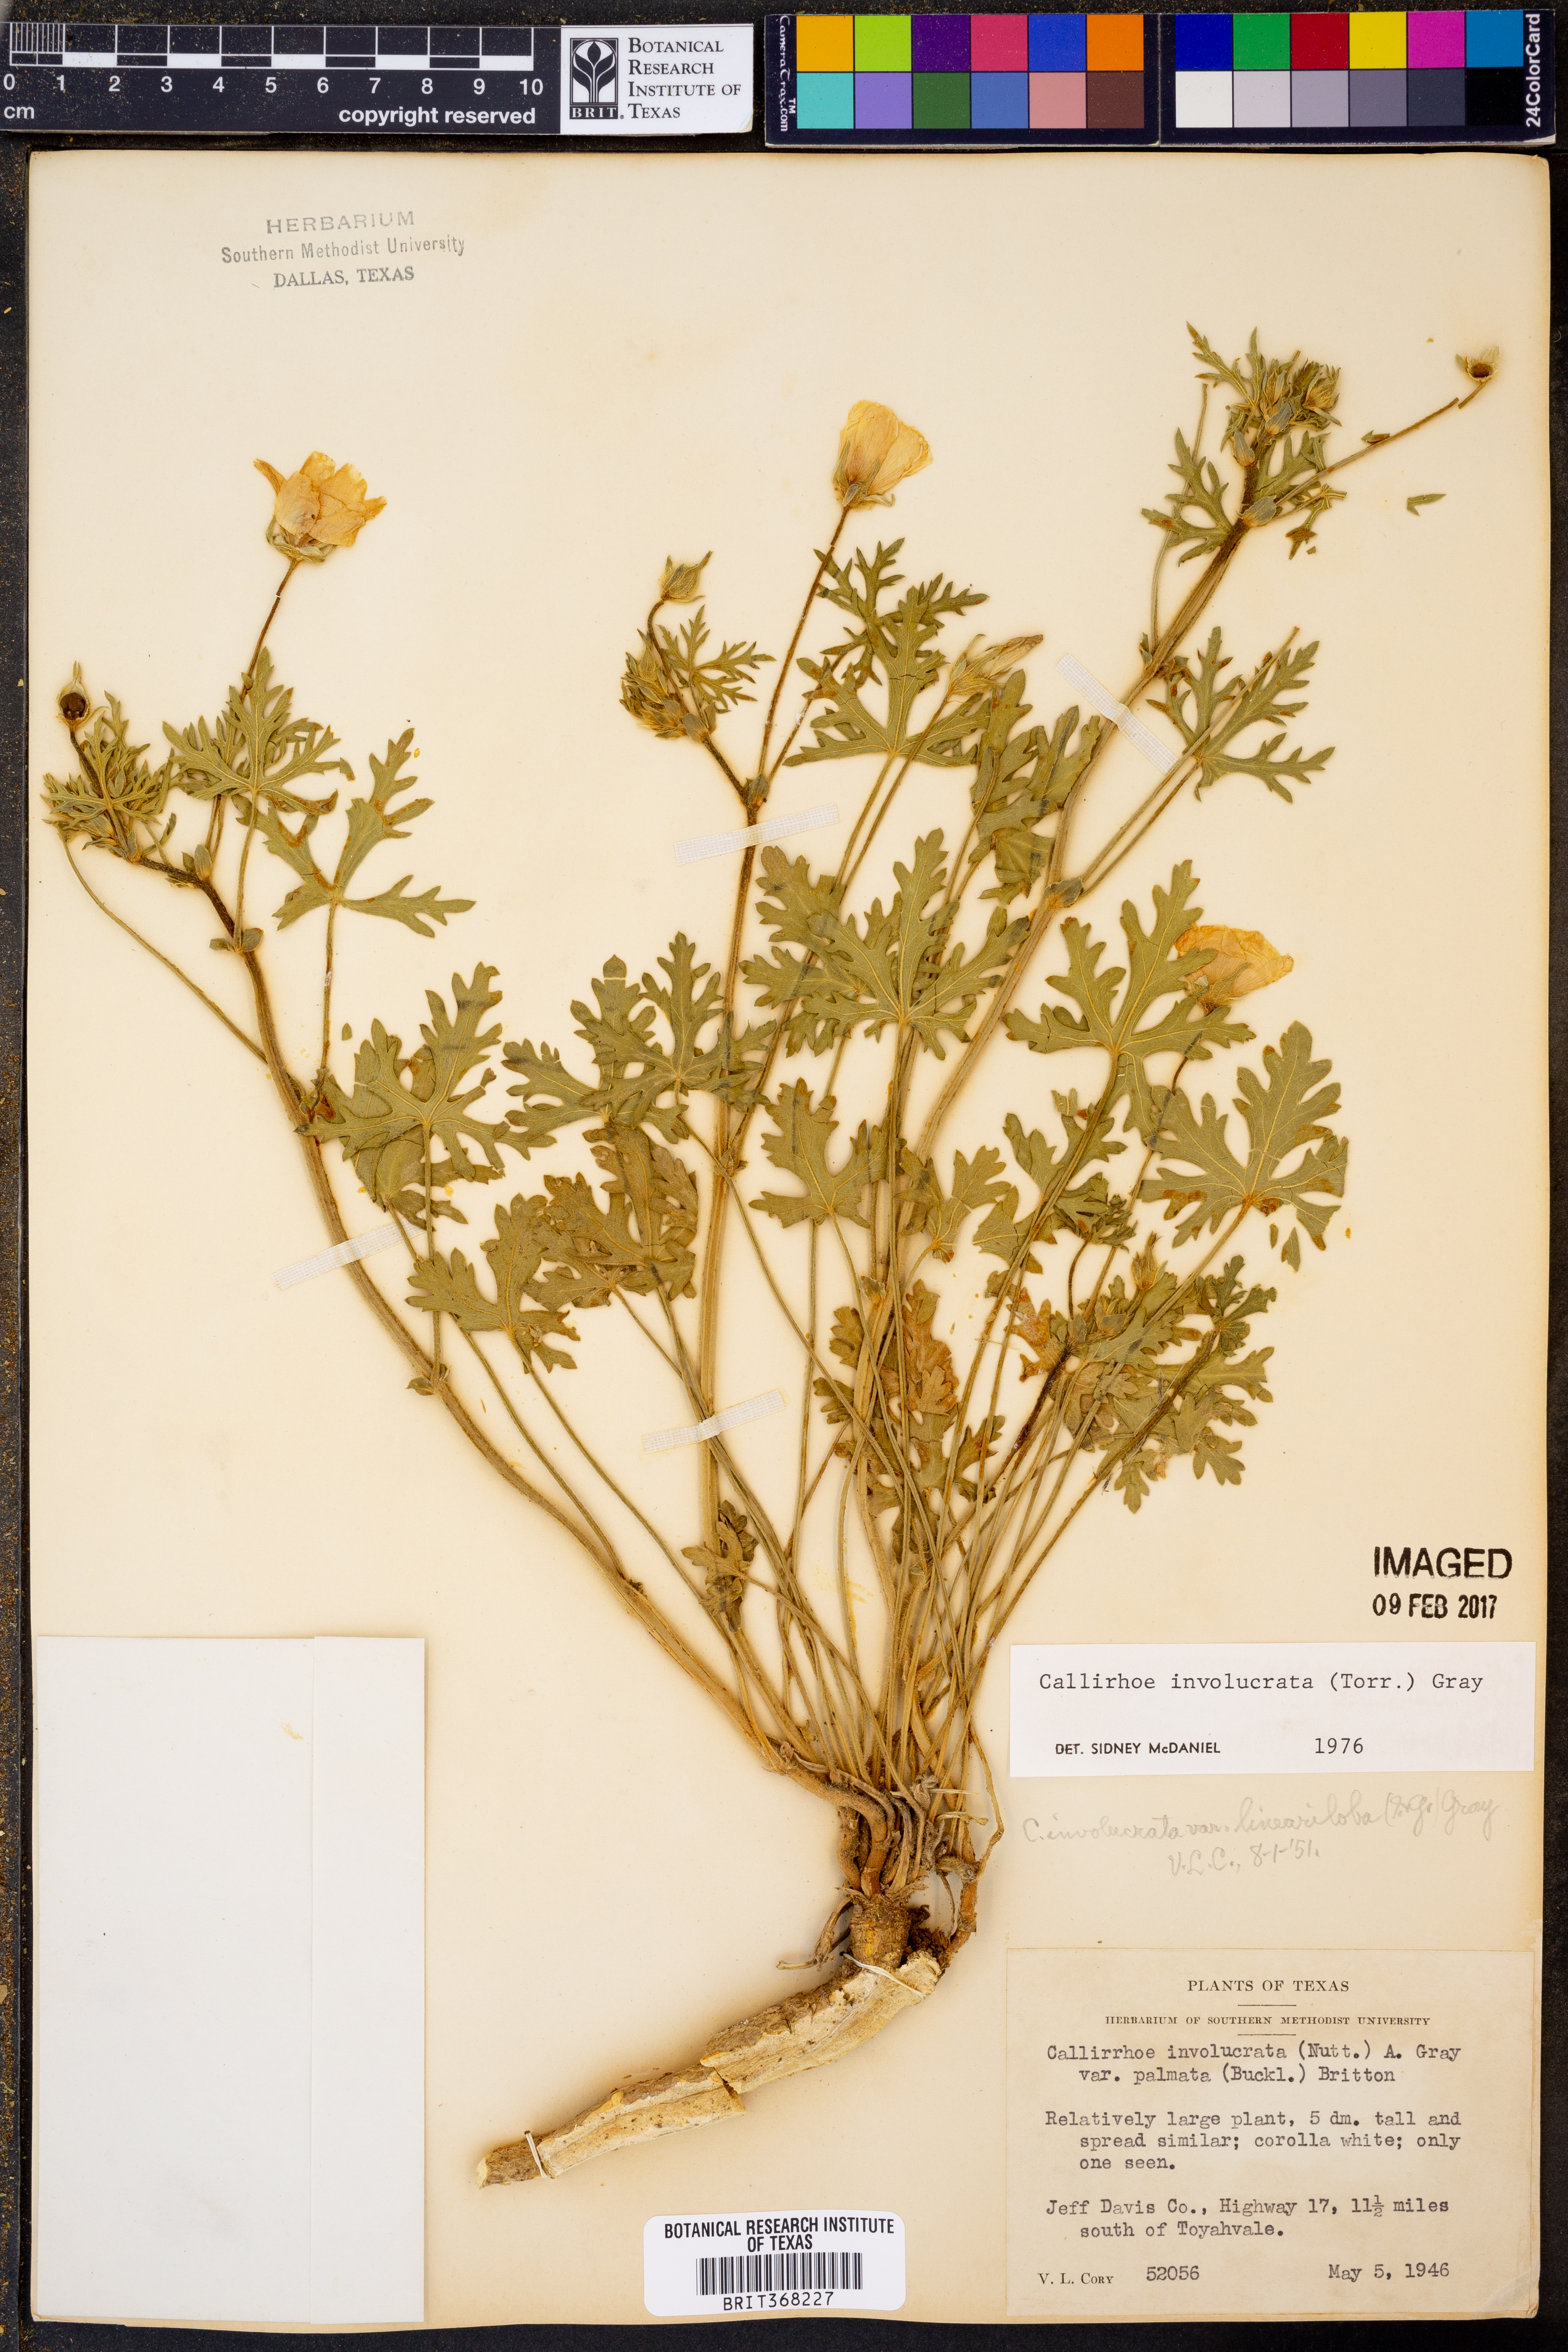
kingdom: Plantae
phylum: Tracheophyta
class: Magnoliopsida
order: Malvales
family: Malvaceae
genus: Callirhoe
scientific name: Callirhoe involucrata
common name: Purple poppy-mallow
